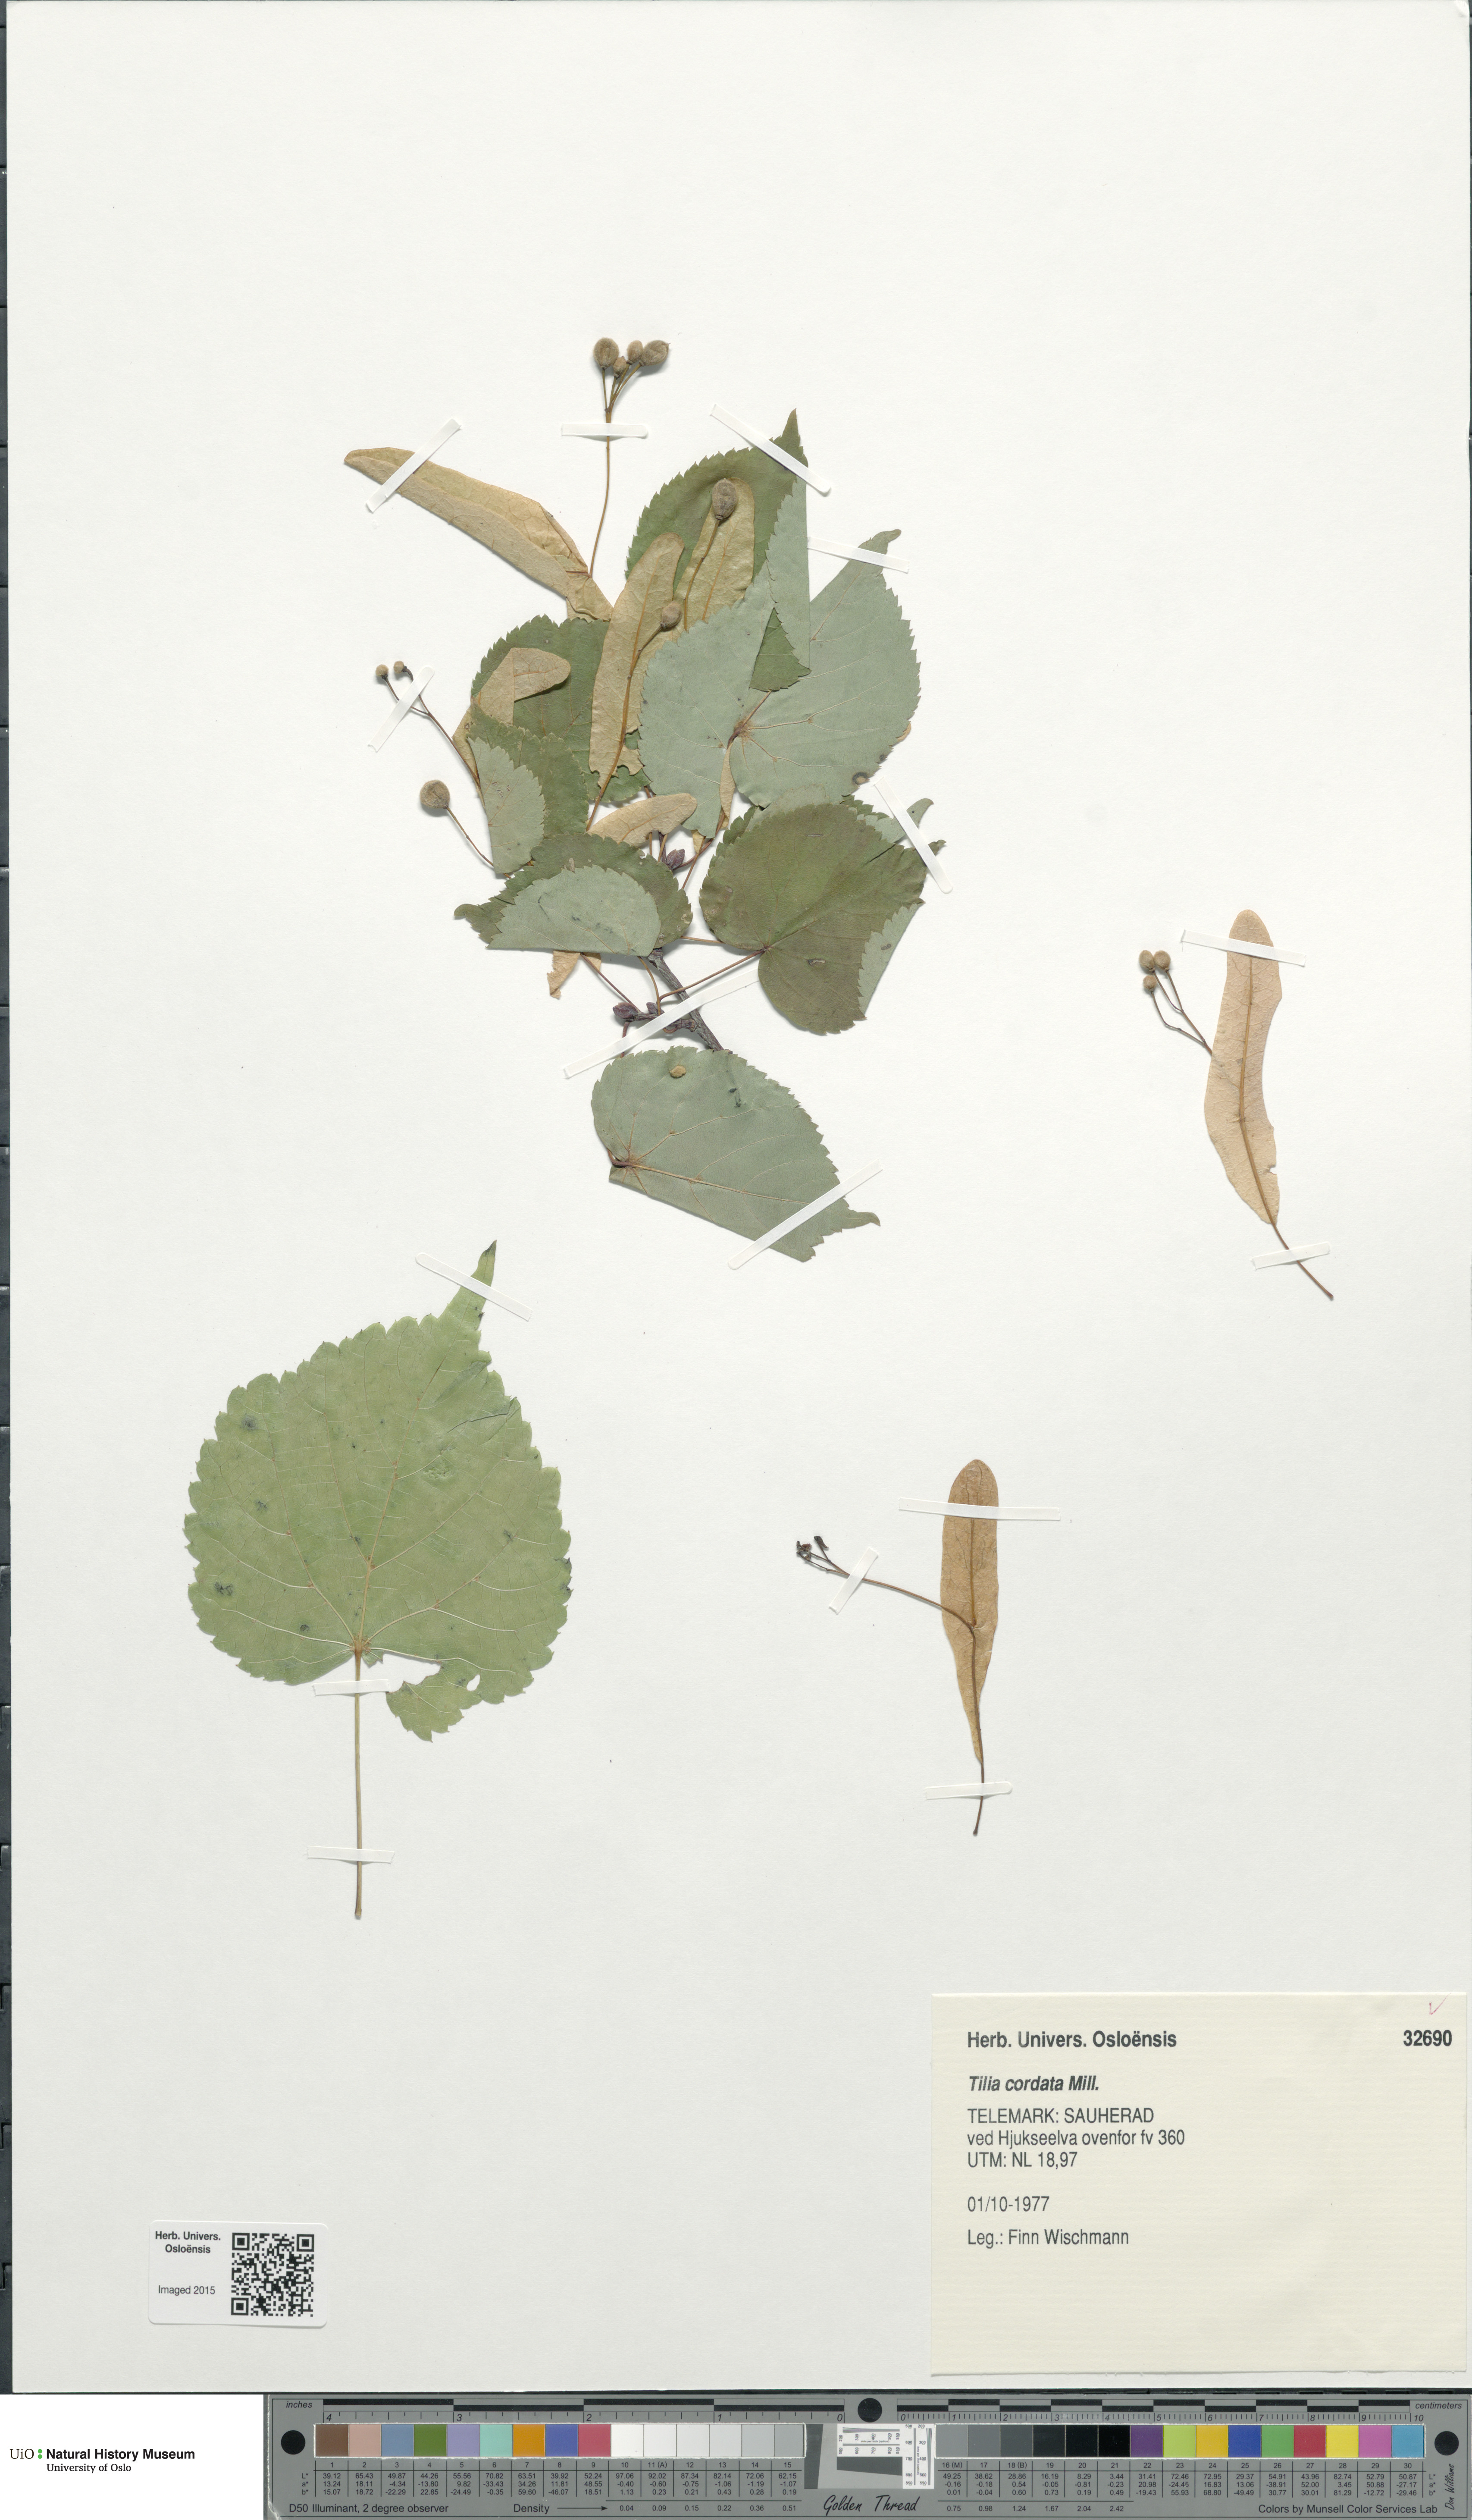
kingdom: Plantae
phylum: Tracheophyta
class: Magnoliopsida
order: Malvales
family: Malvaceae
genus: Tilia
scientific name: Tilia cordata
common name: Small-leaved lime
